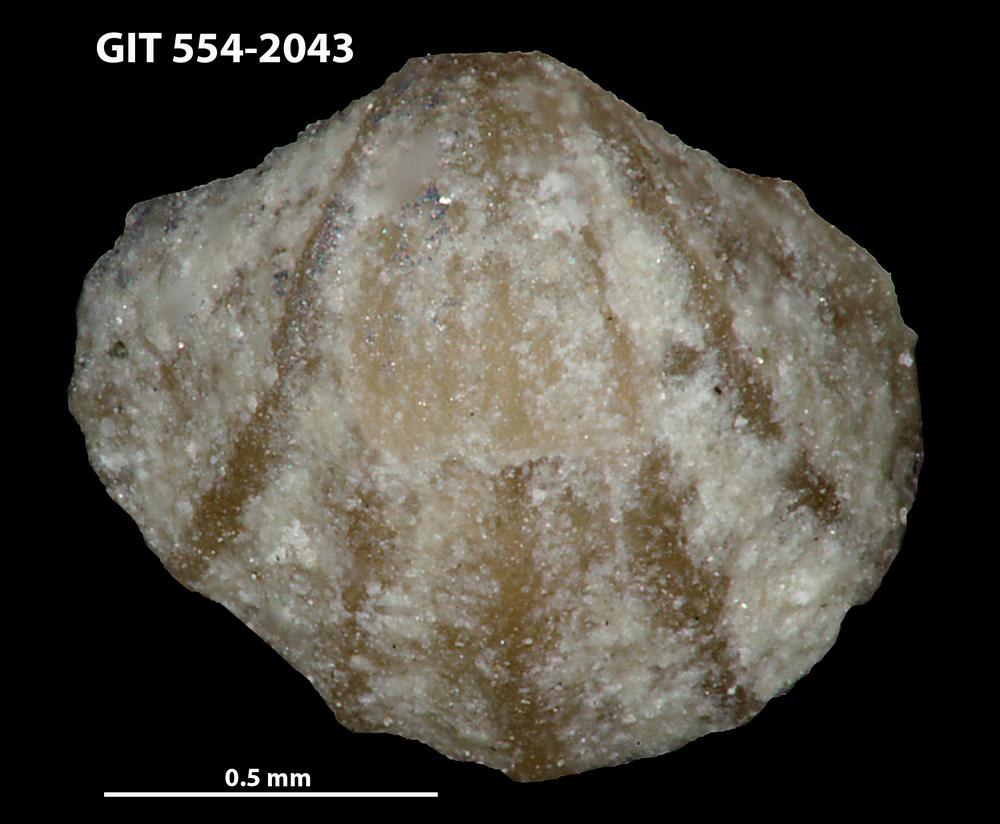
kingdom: Animalia
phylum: Brachiopoda
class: Rhynchonellata
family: Dalmanellidae
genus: Templeella
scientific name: Templeella
